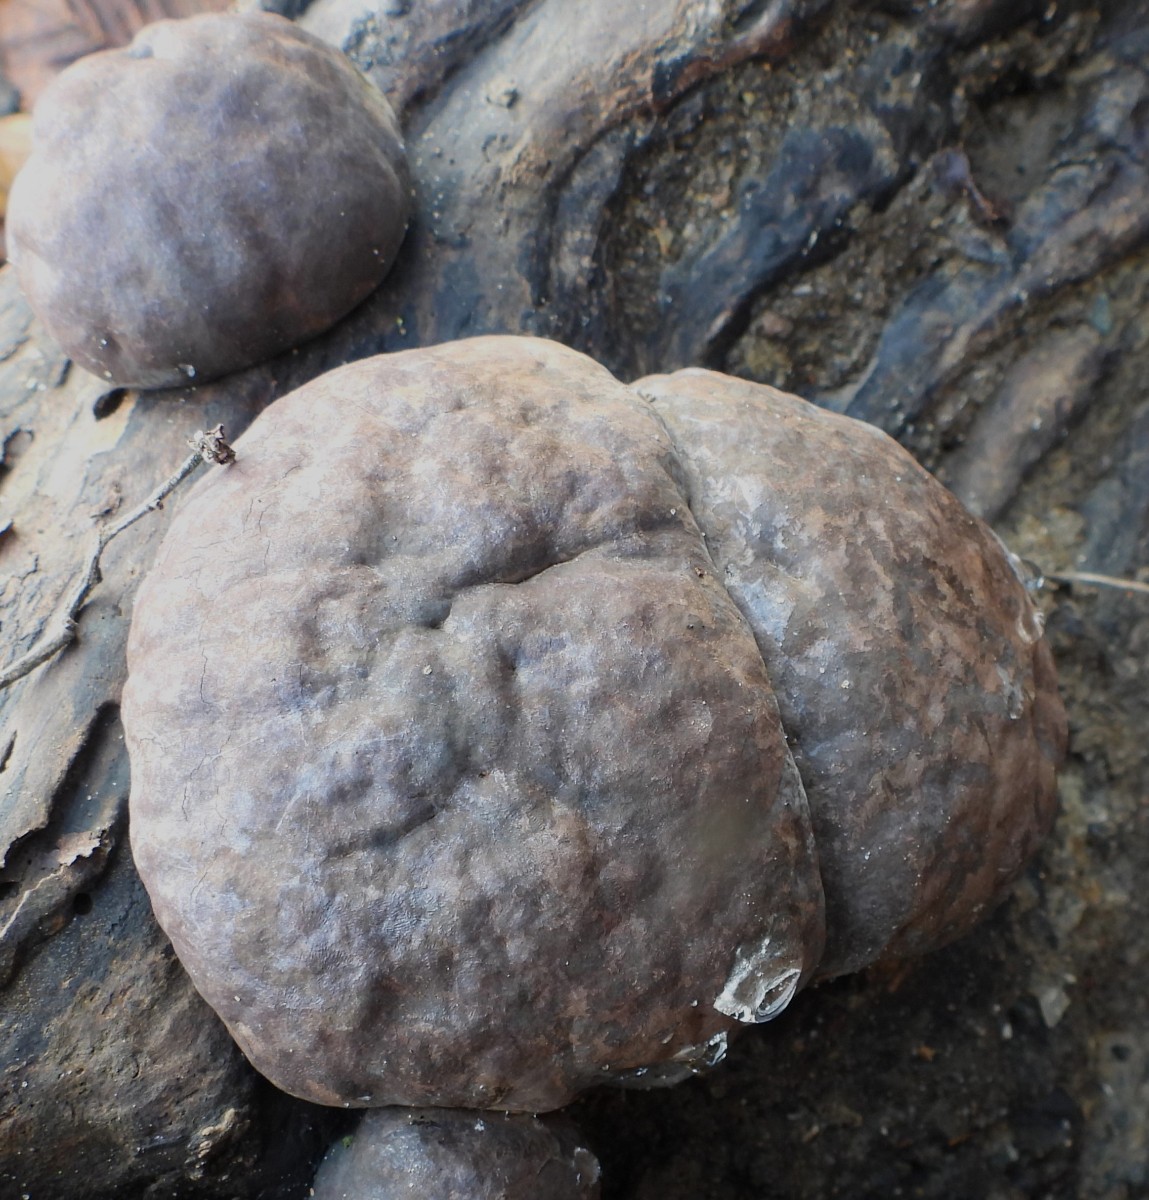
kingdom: Fungi
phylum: Ascomycota
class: Sordariomycetes
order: Xylariales
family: Hypoxylaceae
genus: Daldinia
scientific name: Daldinia concentrica
